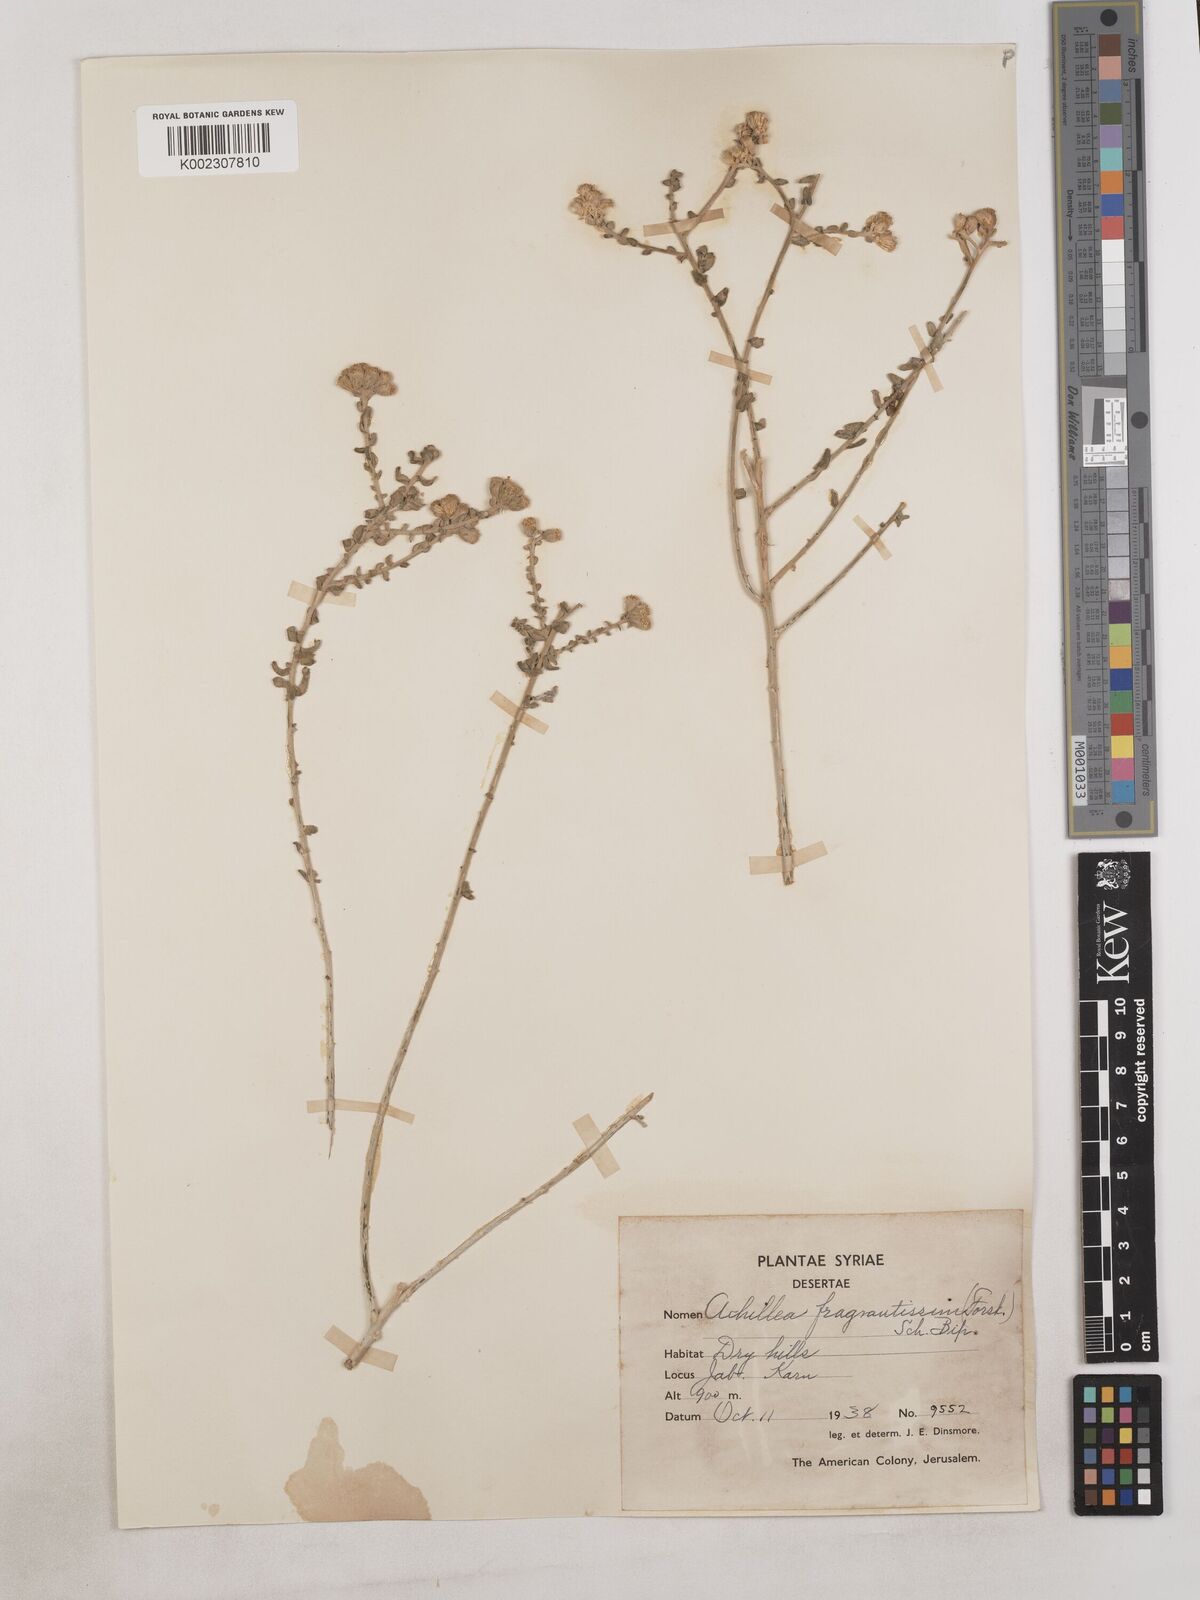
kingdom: Plantae
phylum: Tracheophyta
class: Magnoliopsida
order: Asterales
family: Asteraceae
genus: Achillea
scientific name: Achillea fragrantissima
